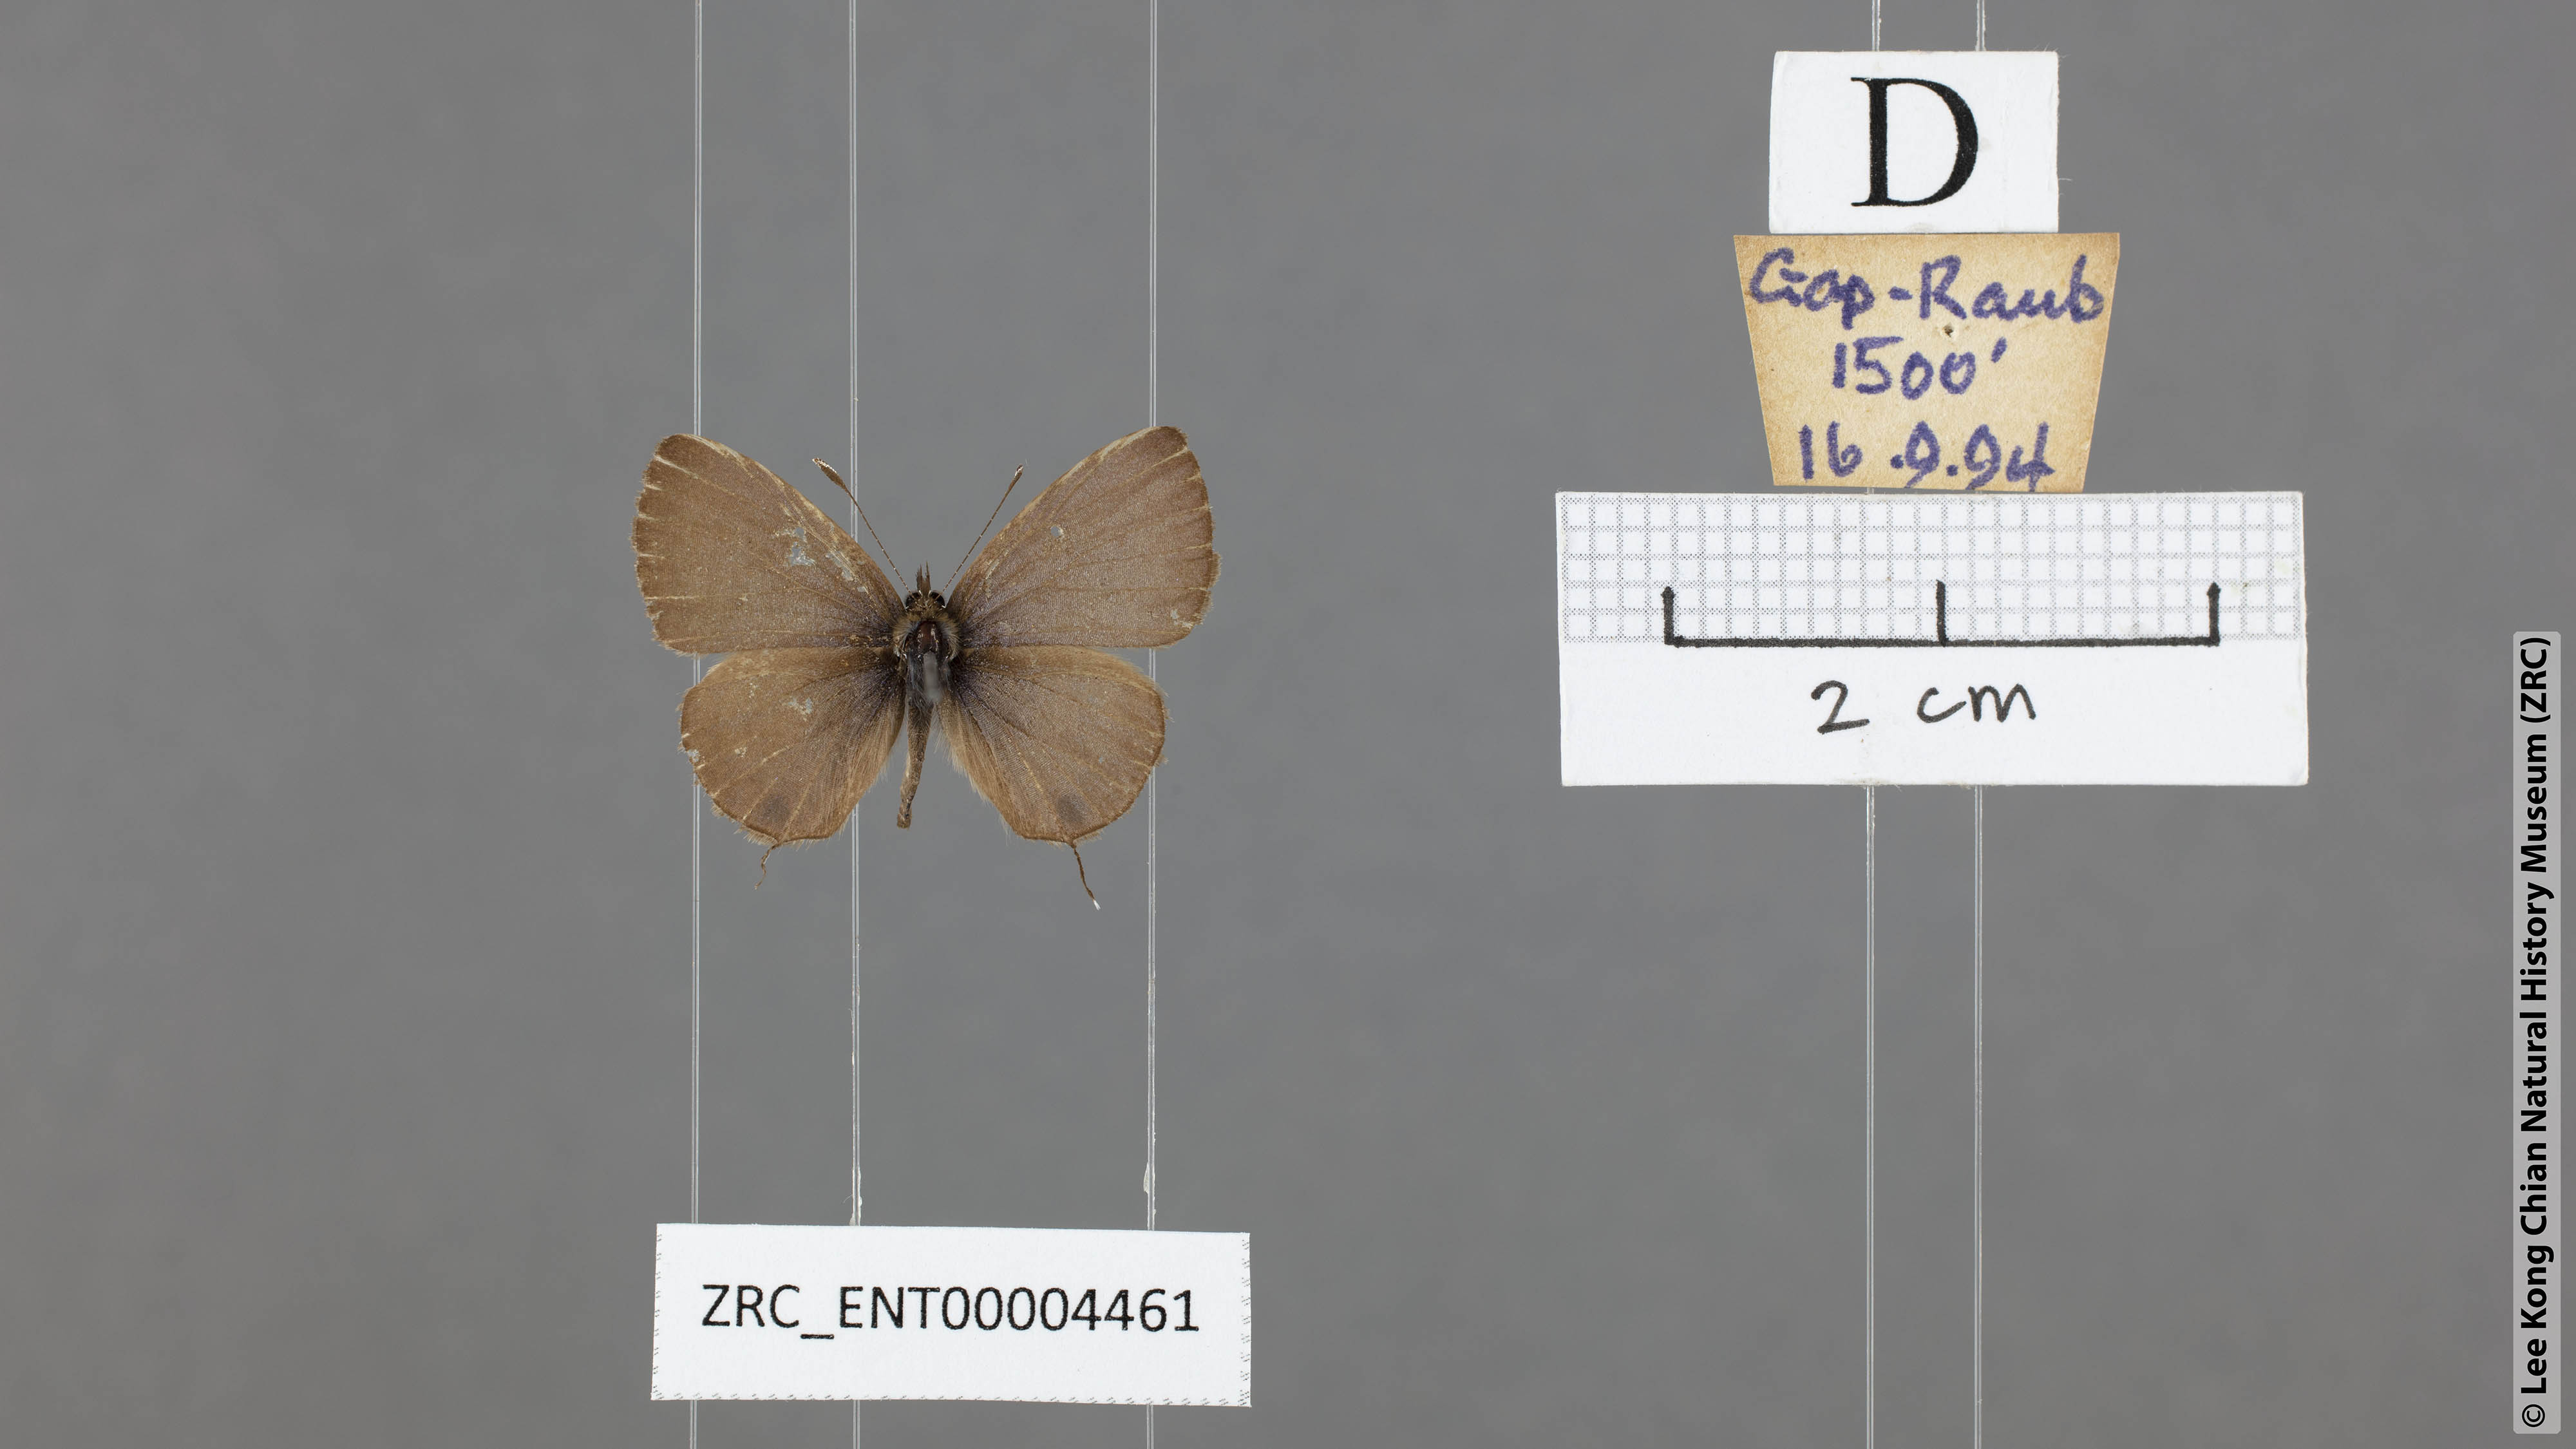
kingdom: Animalia
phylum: Arthropoda
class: Insecta
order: Lepidoptera
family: Lycaenidae
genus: Prosotas
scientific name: Prosotas nora
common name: Common line blue
